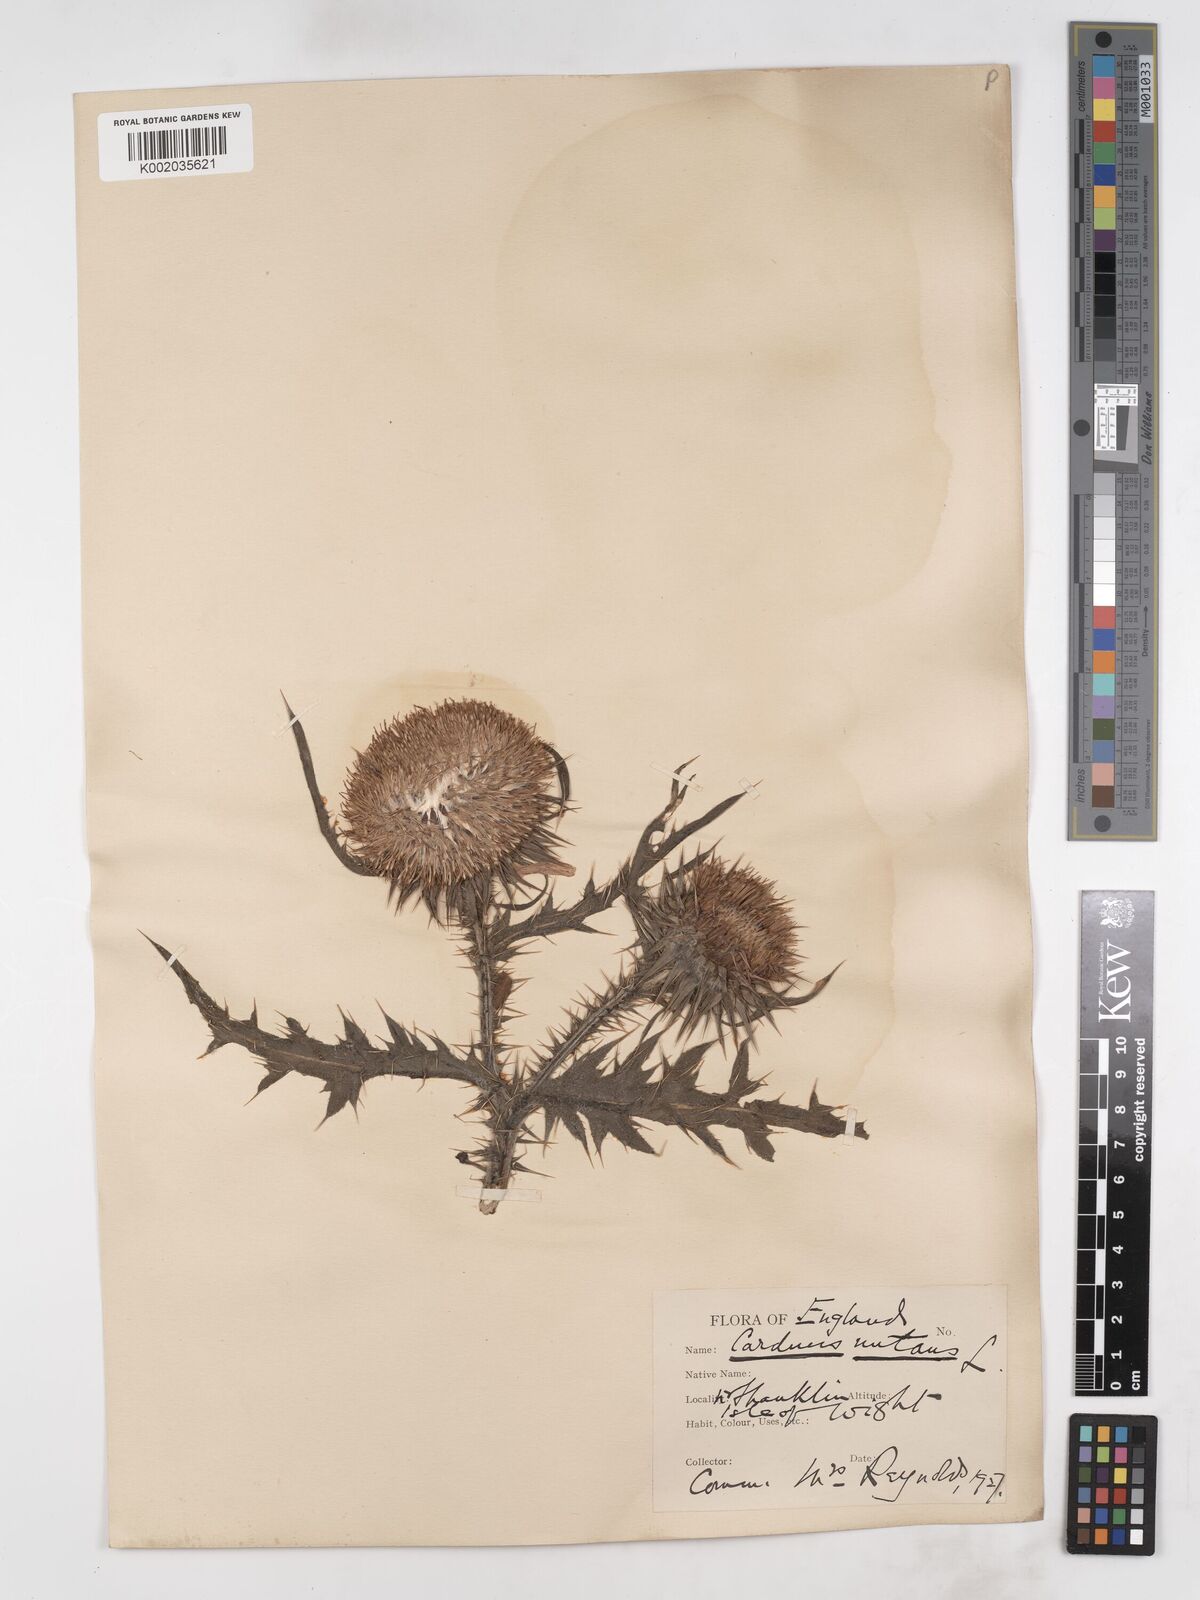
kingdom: Plantae
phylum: Tracheophyta
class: Magnoliopsida
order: Asterales
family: Asteraceae
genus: Carduus
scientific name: Carduus nutans
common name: Musk thistle
